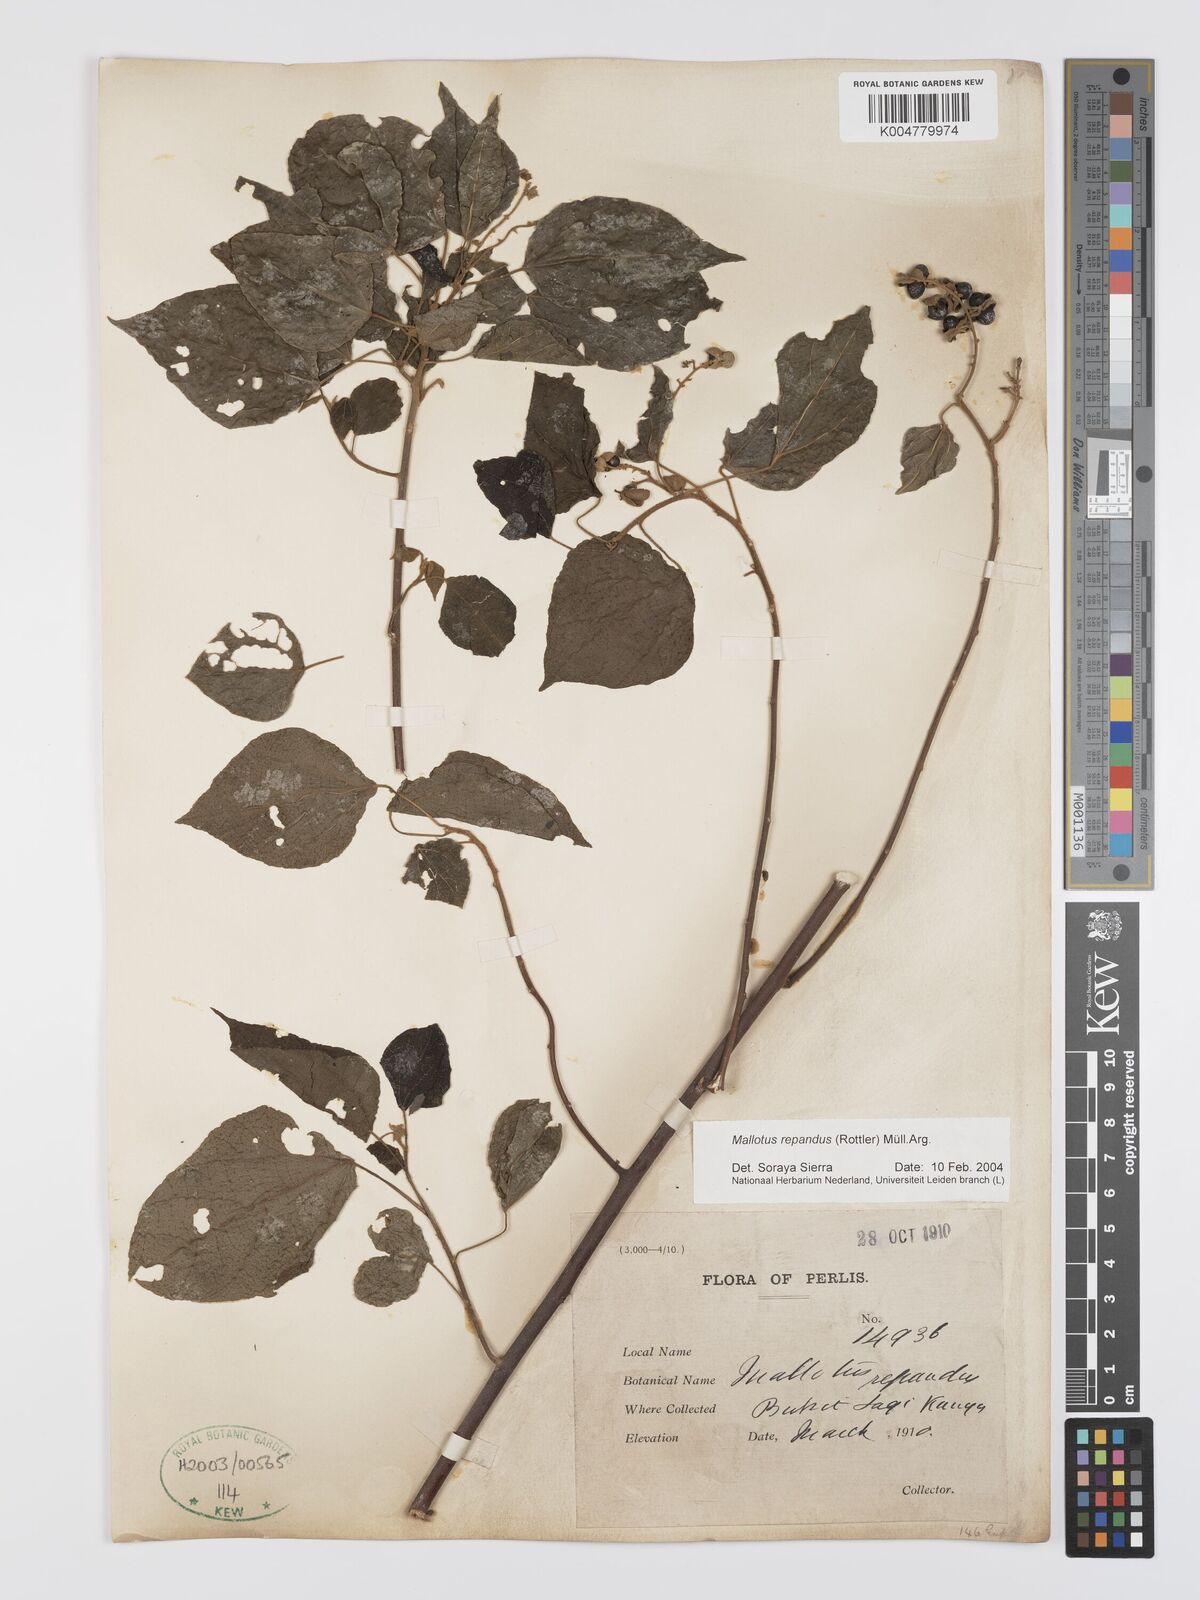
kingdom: Plantae
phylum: Tracheophyta
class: Magnoliopsida
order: Malpighiales
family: Euphorbiaceae
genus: Mallotus
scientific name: Mallotus repandus
